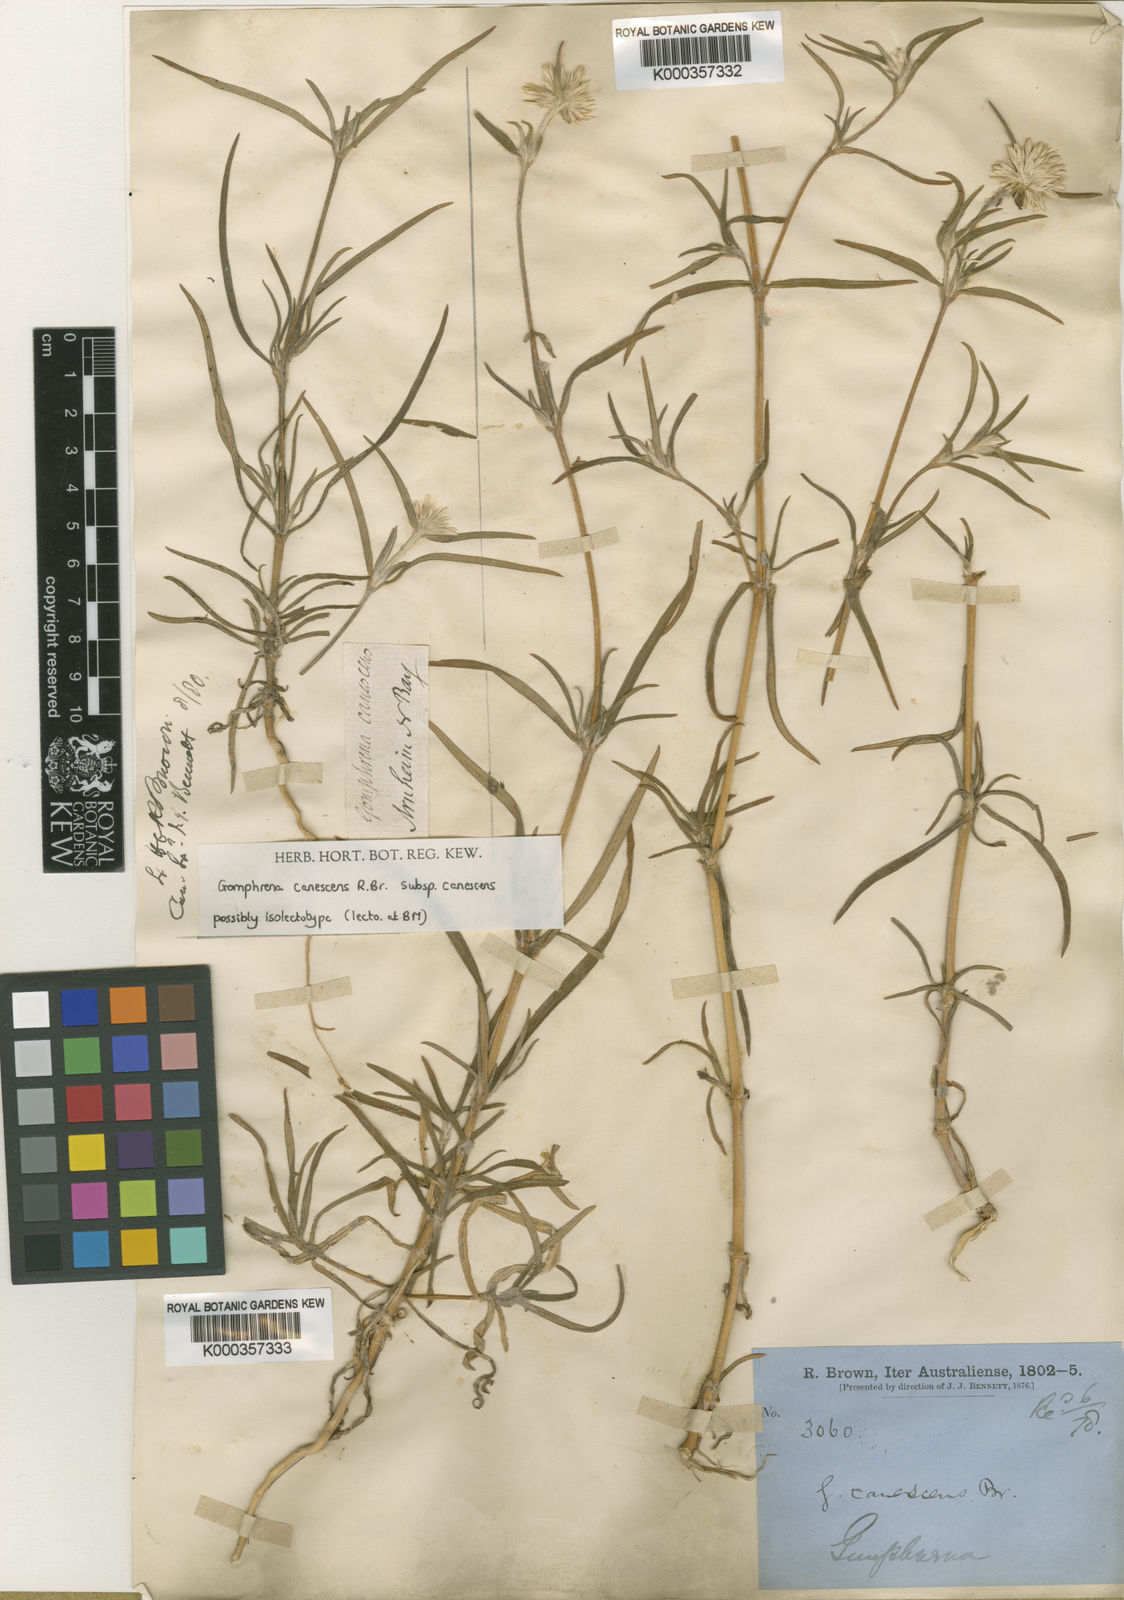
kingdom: Plantae
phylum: Tracheophyta
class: Magnoliopsida
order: Caryophyllales
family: Amaranthaceae
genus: Gomphrena
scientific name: Gomphrena canescens
